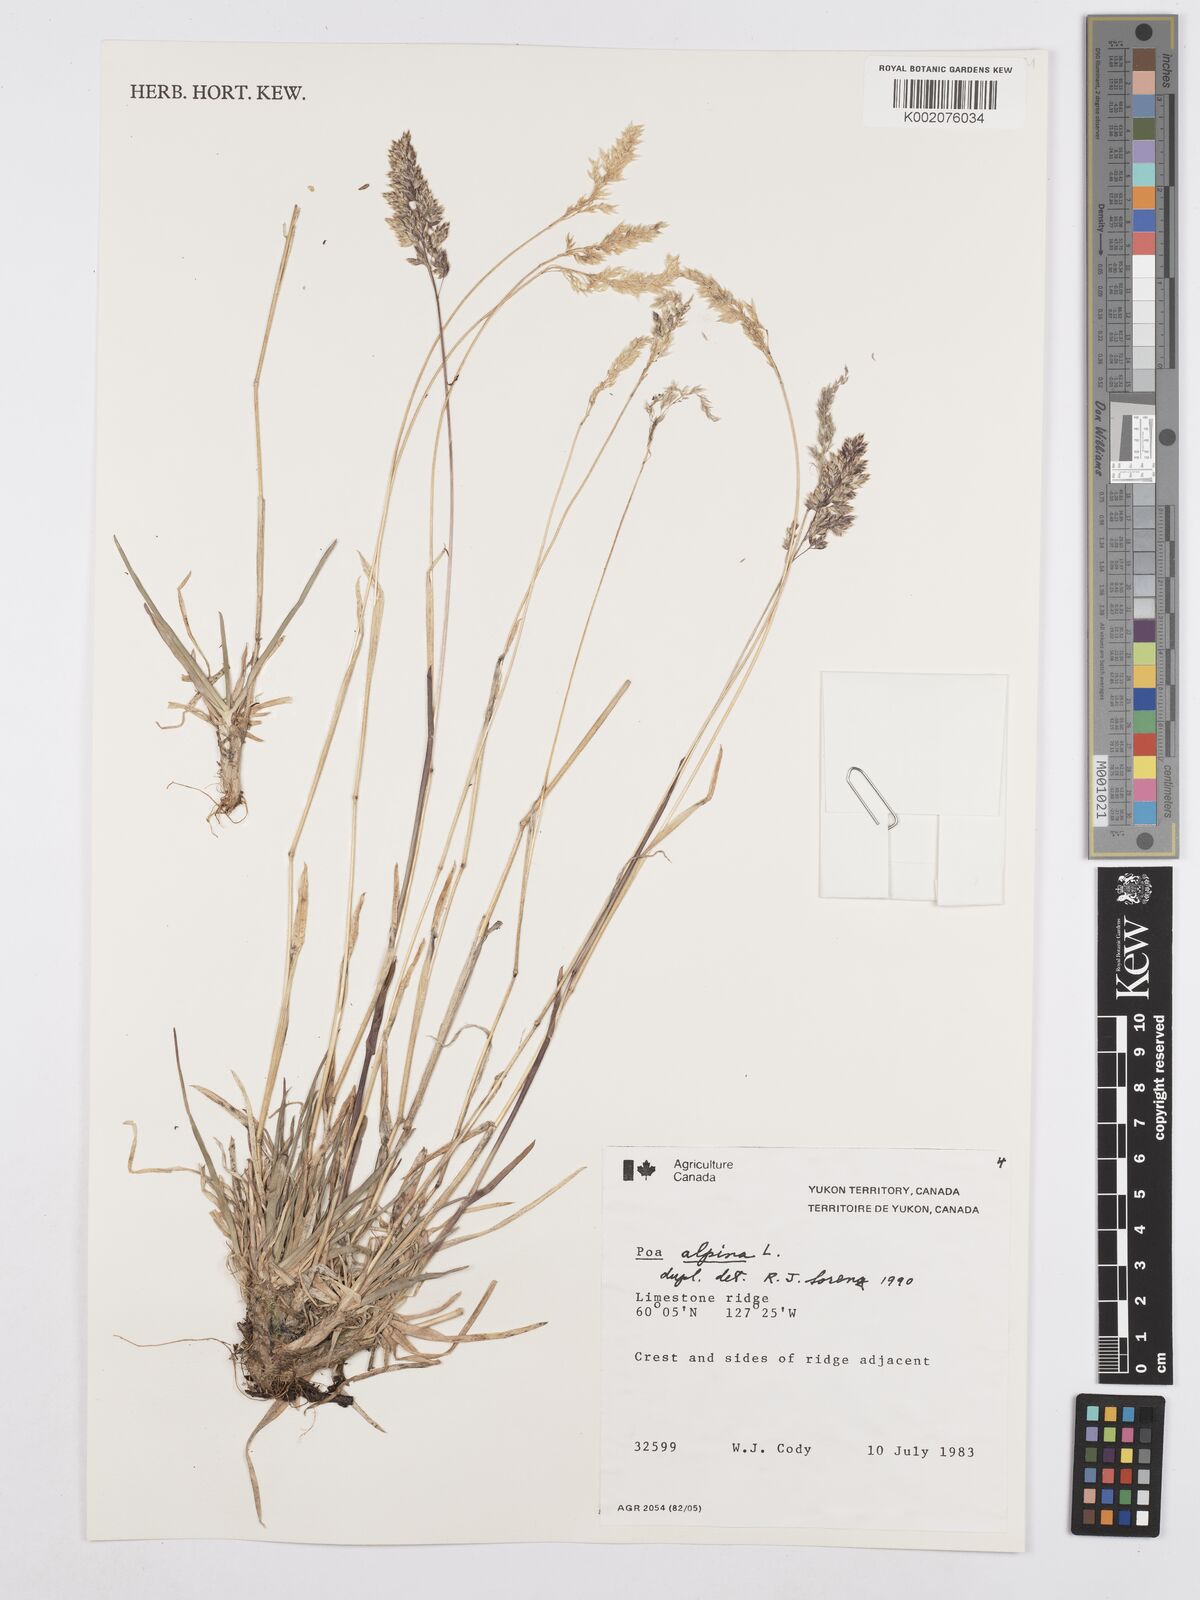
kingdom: Plantae
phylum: Tracheophyta
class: Liliopsida
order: Poales
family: Poaceae
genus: Poa
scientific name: Poa alpina
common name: Alpine bluegrass
